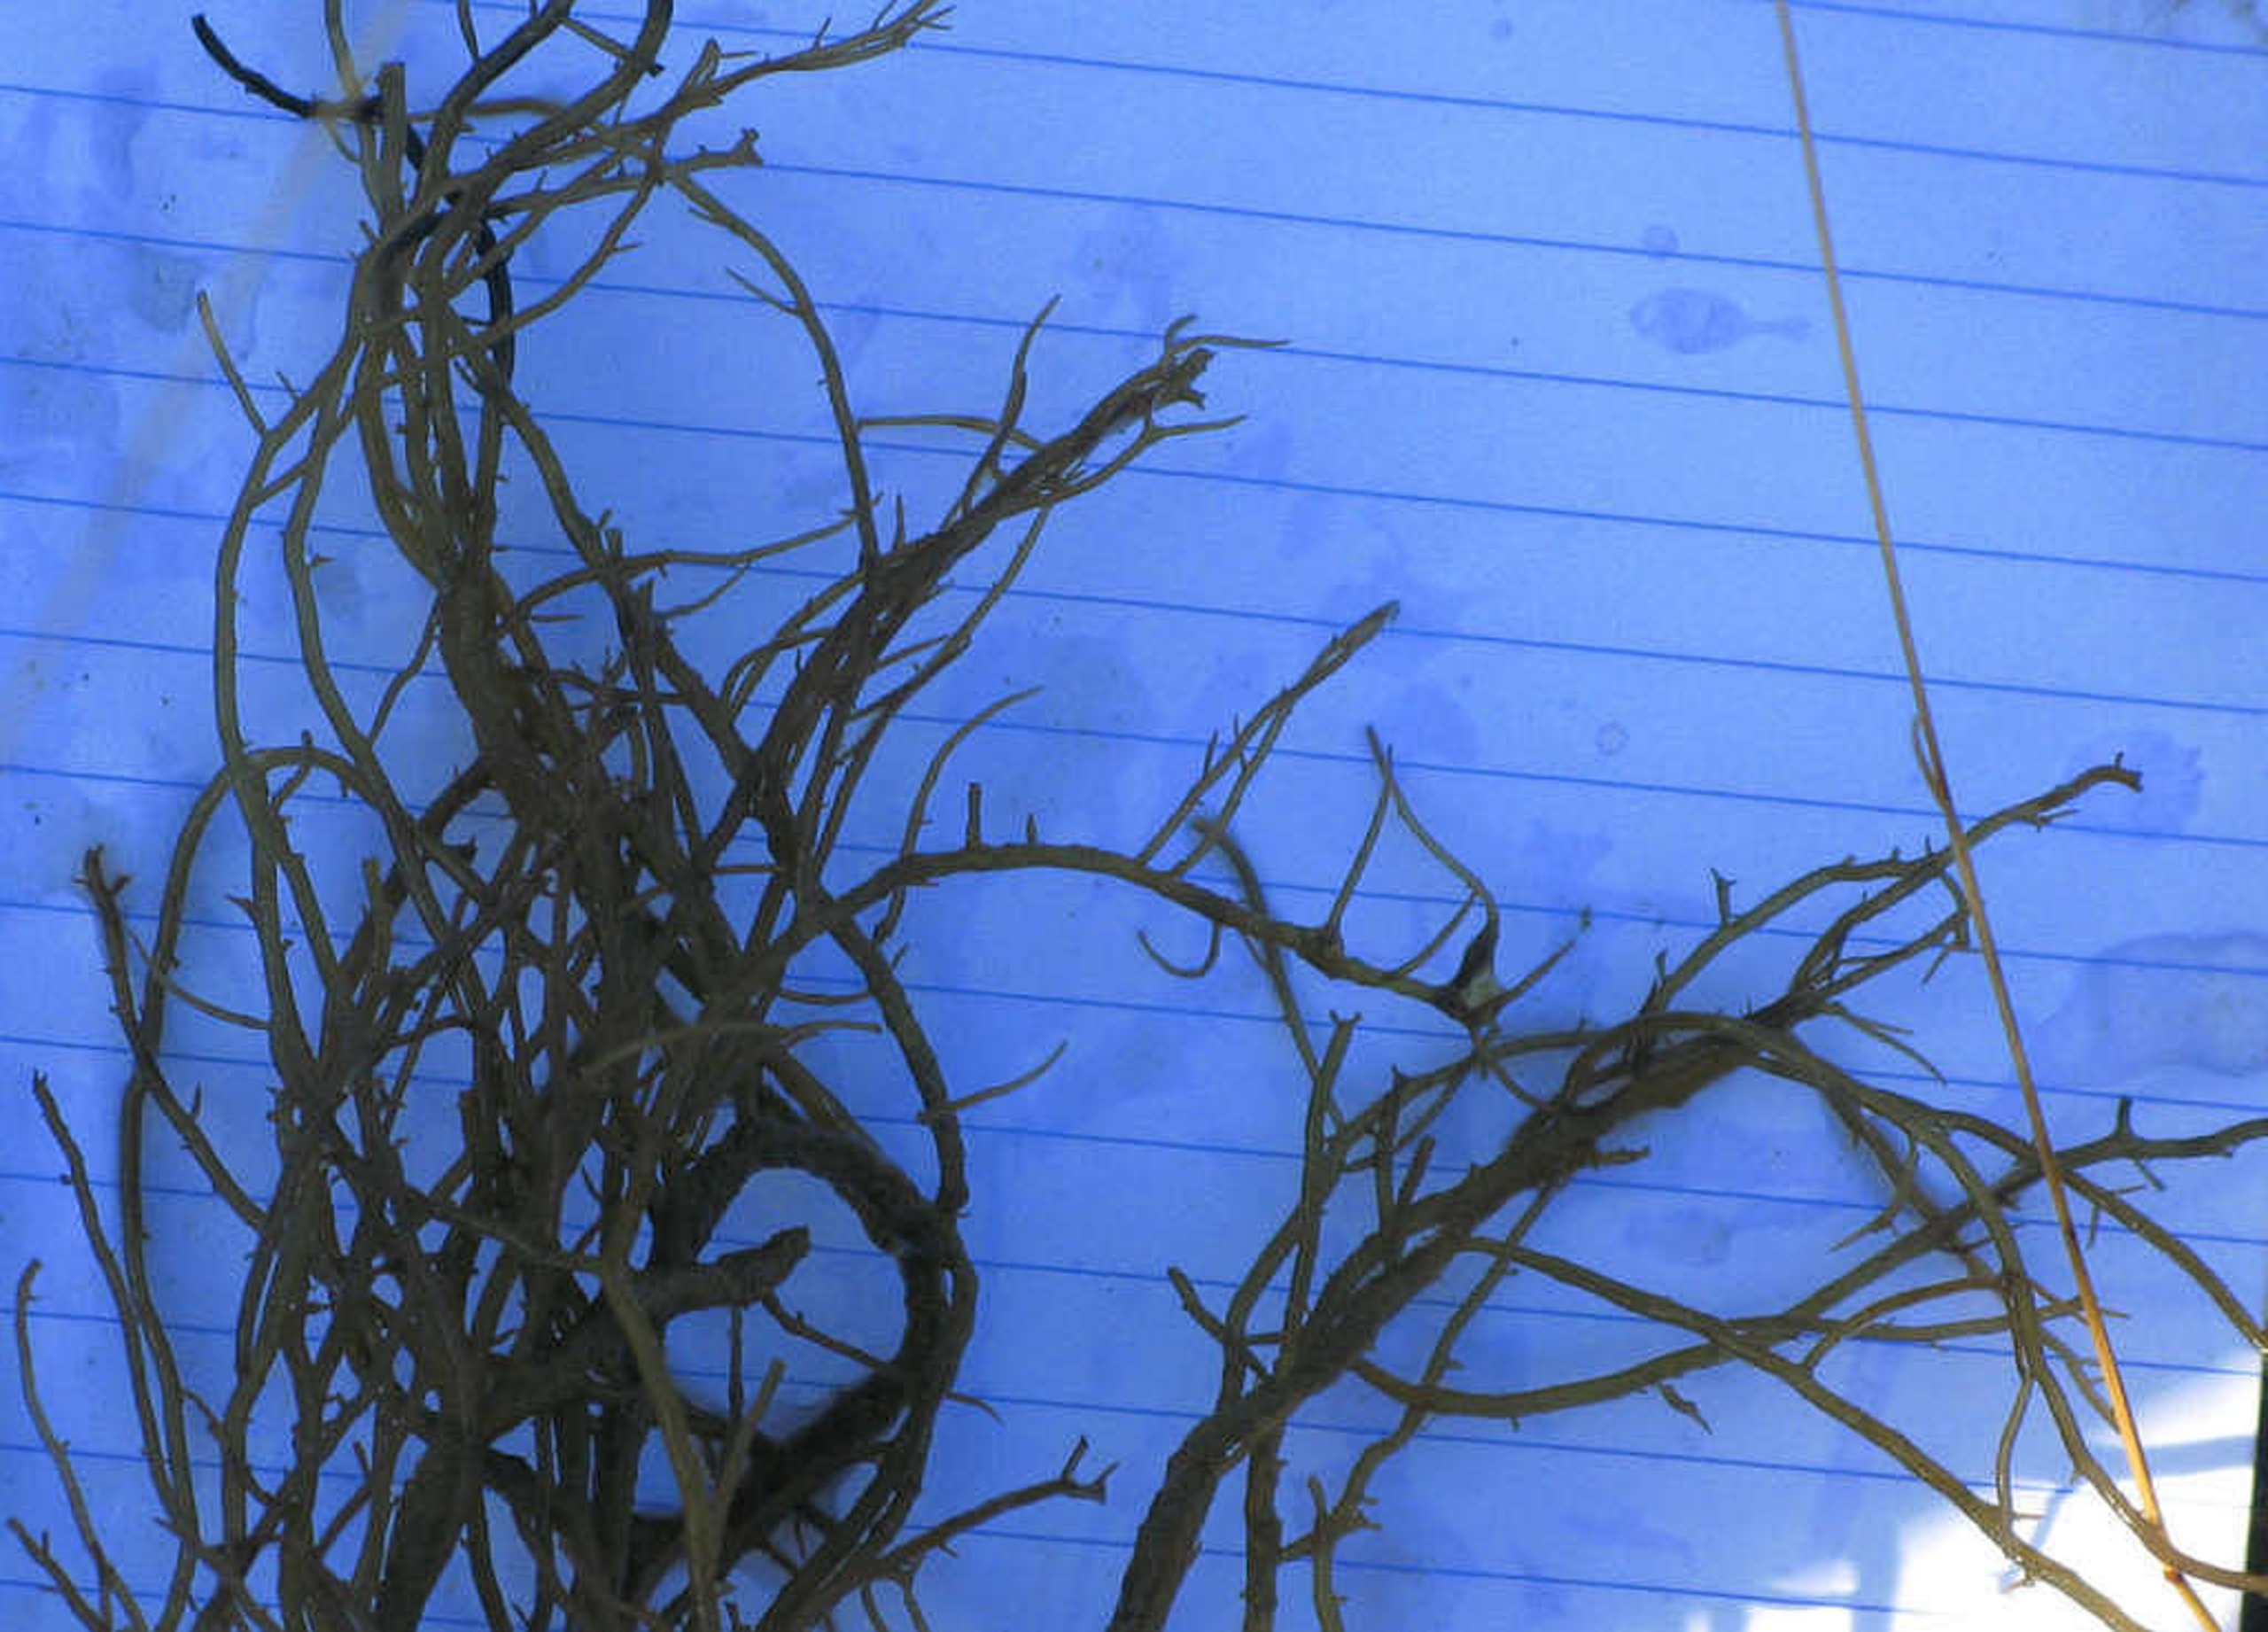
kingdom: Plantae
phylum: Rhodophyta
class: Florideophyceae
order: Gracilariales
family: Gracilariaceae
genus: Gracilaria
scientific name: Gracilaria vermiculophylla
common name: Brunlig gracilariatang
